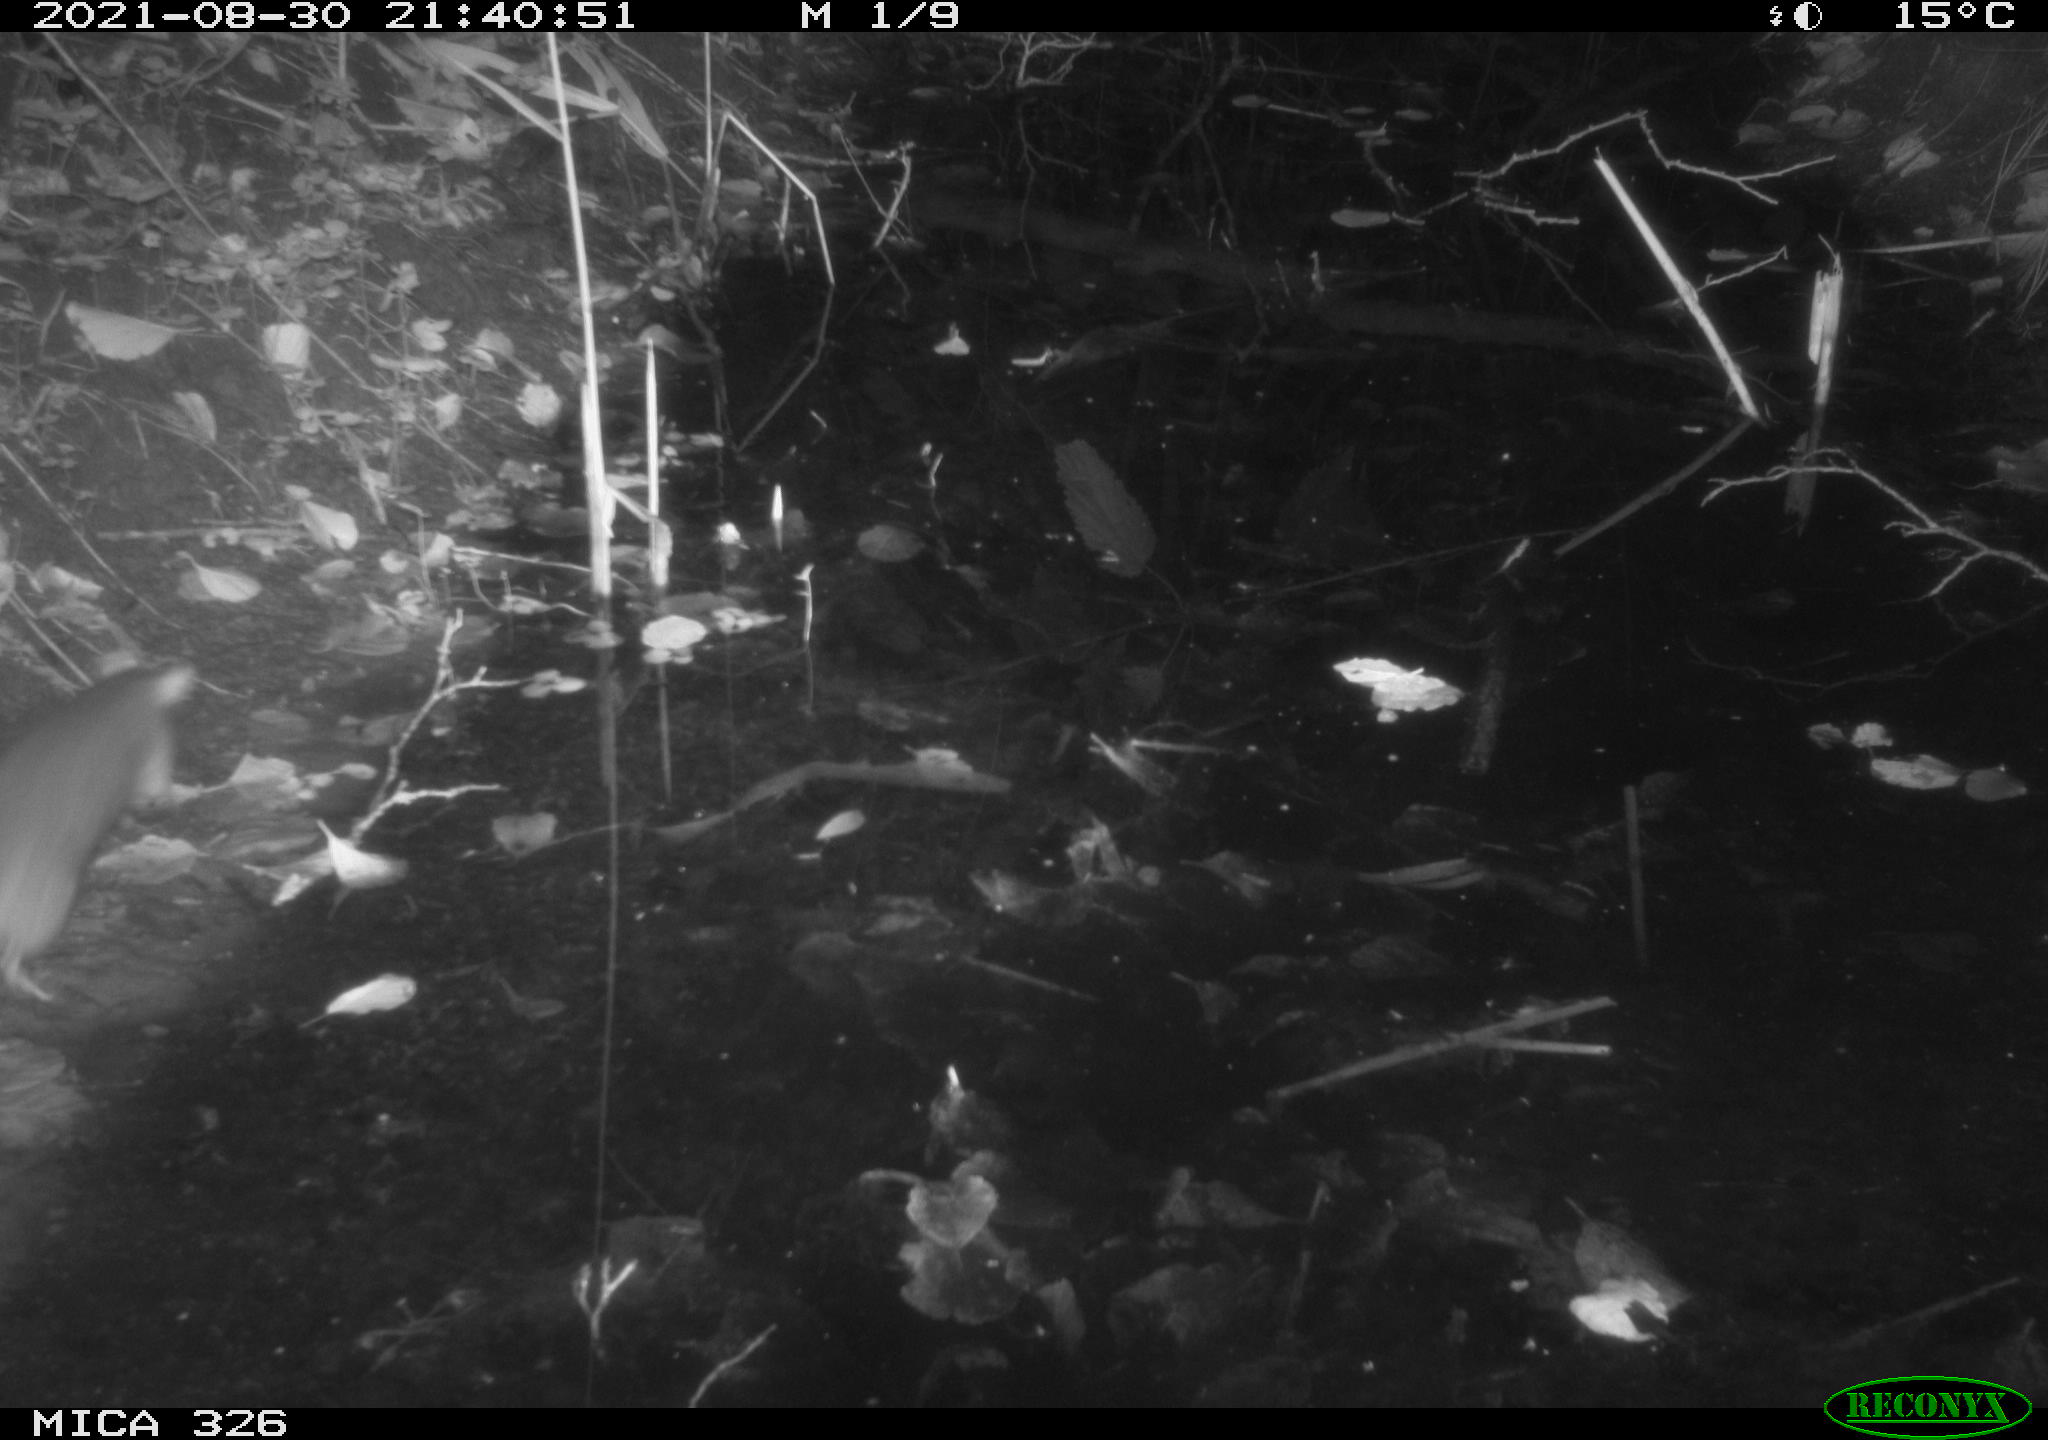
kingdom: Animalia
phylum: Chordata
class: Mammalia
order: Rodentia
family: Muridae
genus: Rattus
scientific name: Rattus norvegicus
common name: Brown rat
